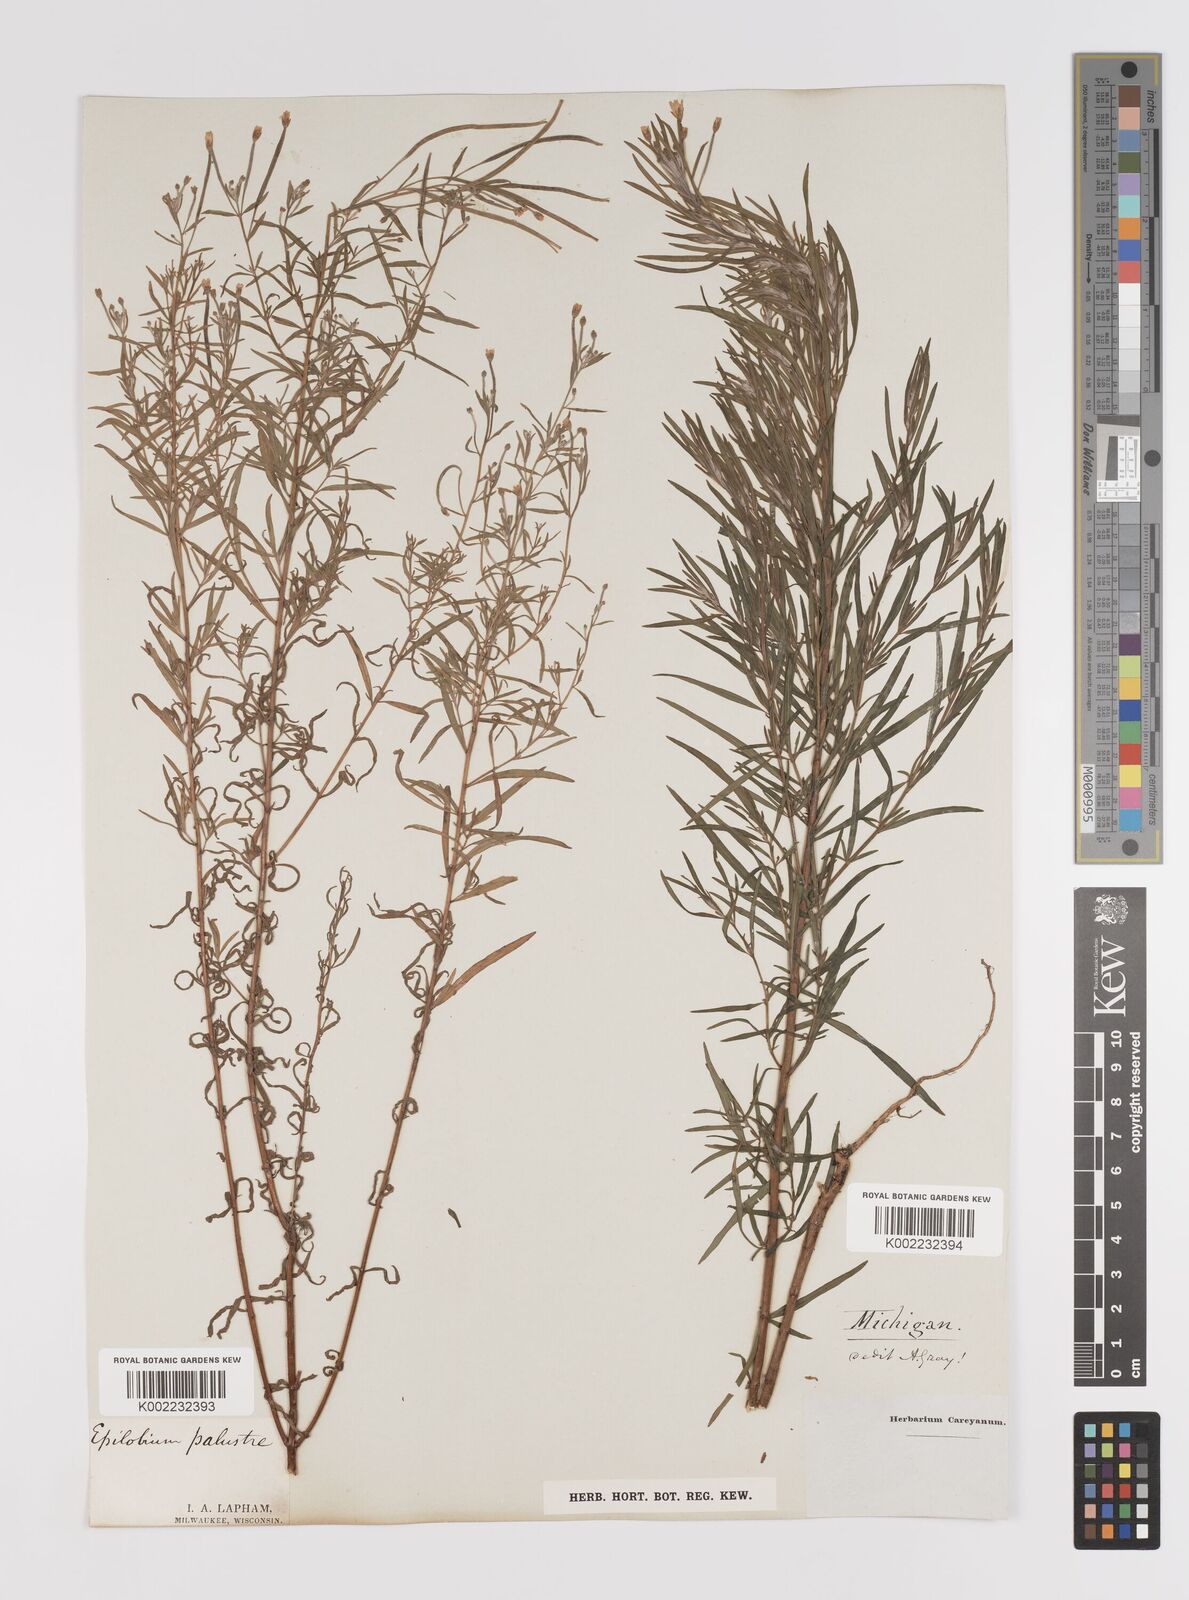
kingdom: Plantae
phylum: Tracheophyta
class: Magnoliopsida
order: Myrtales
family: Onagraceae
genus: Epilobium
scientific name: Epilobium palustre
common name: Marsh willowherb
